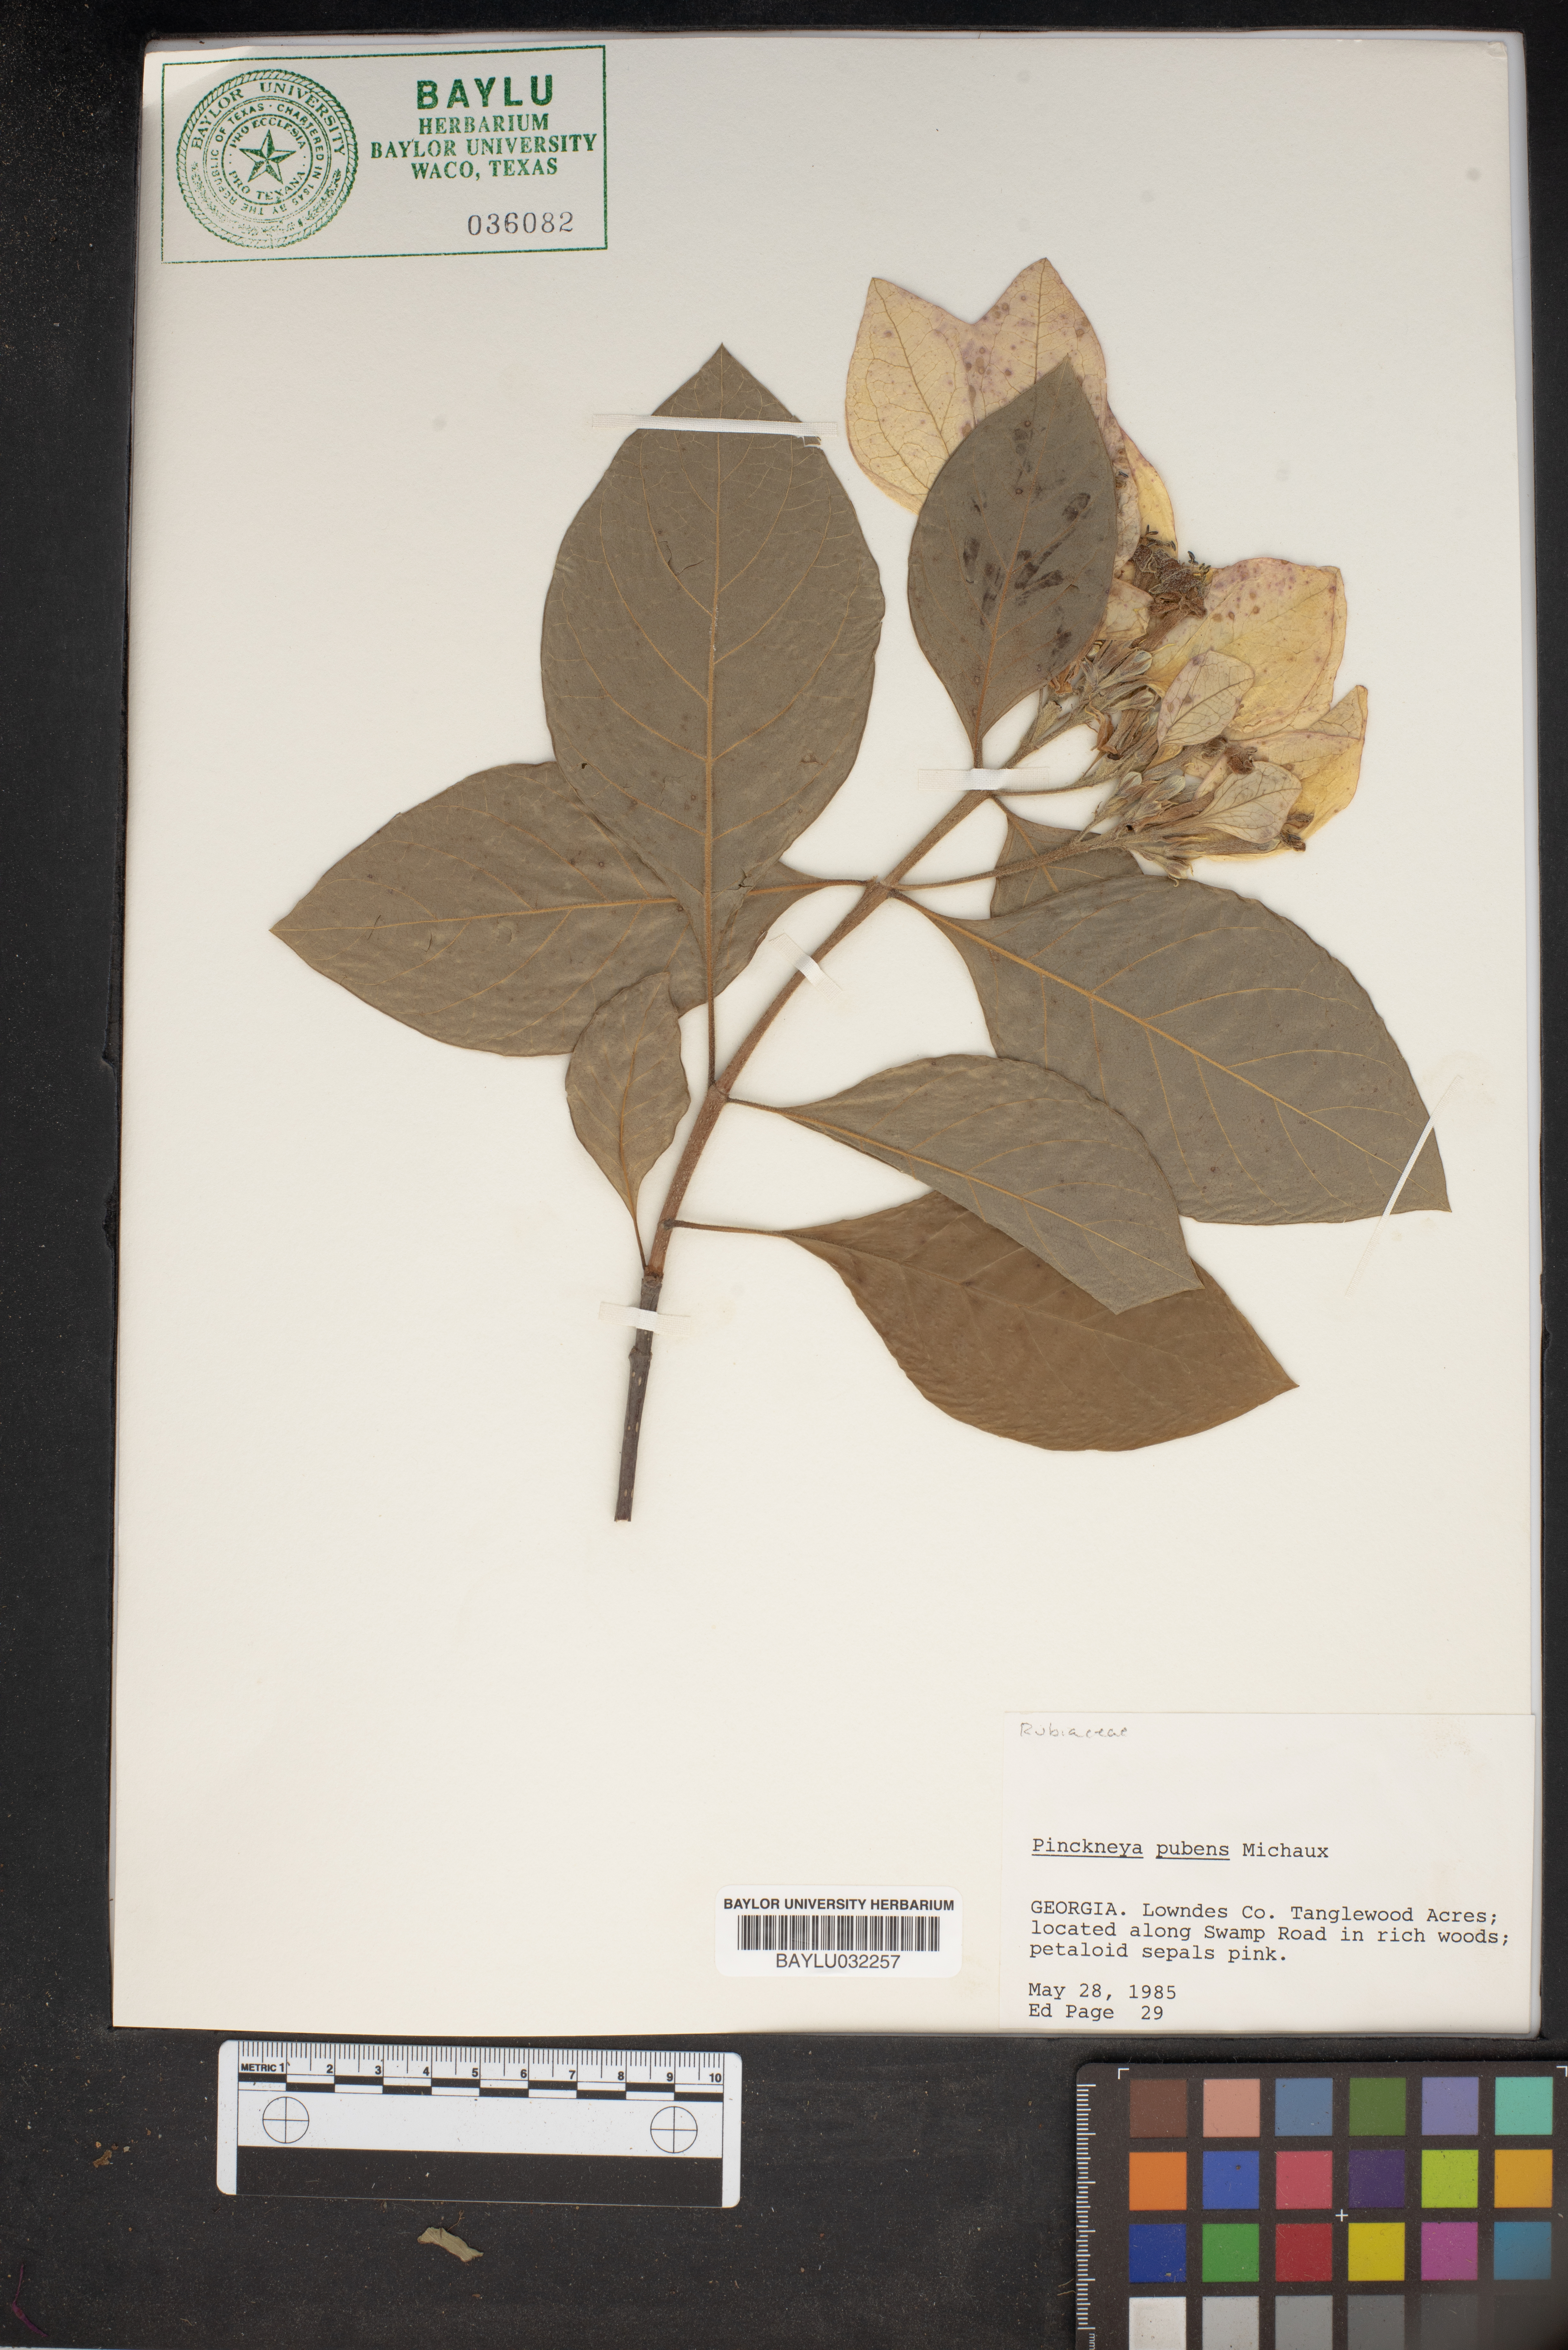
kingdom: Plantae
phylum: Tracheophyta
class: Magnoliopsida
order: Gentianales
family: Rubiaceae
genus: Pinckneya
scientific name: Pinckneya pubens
